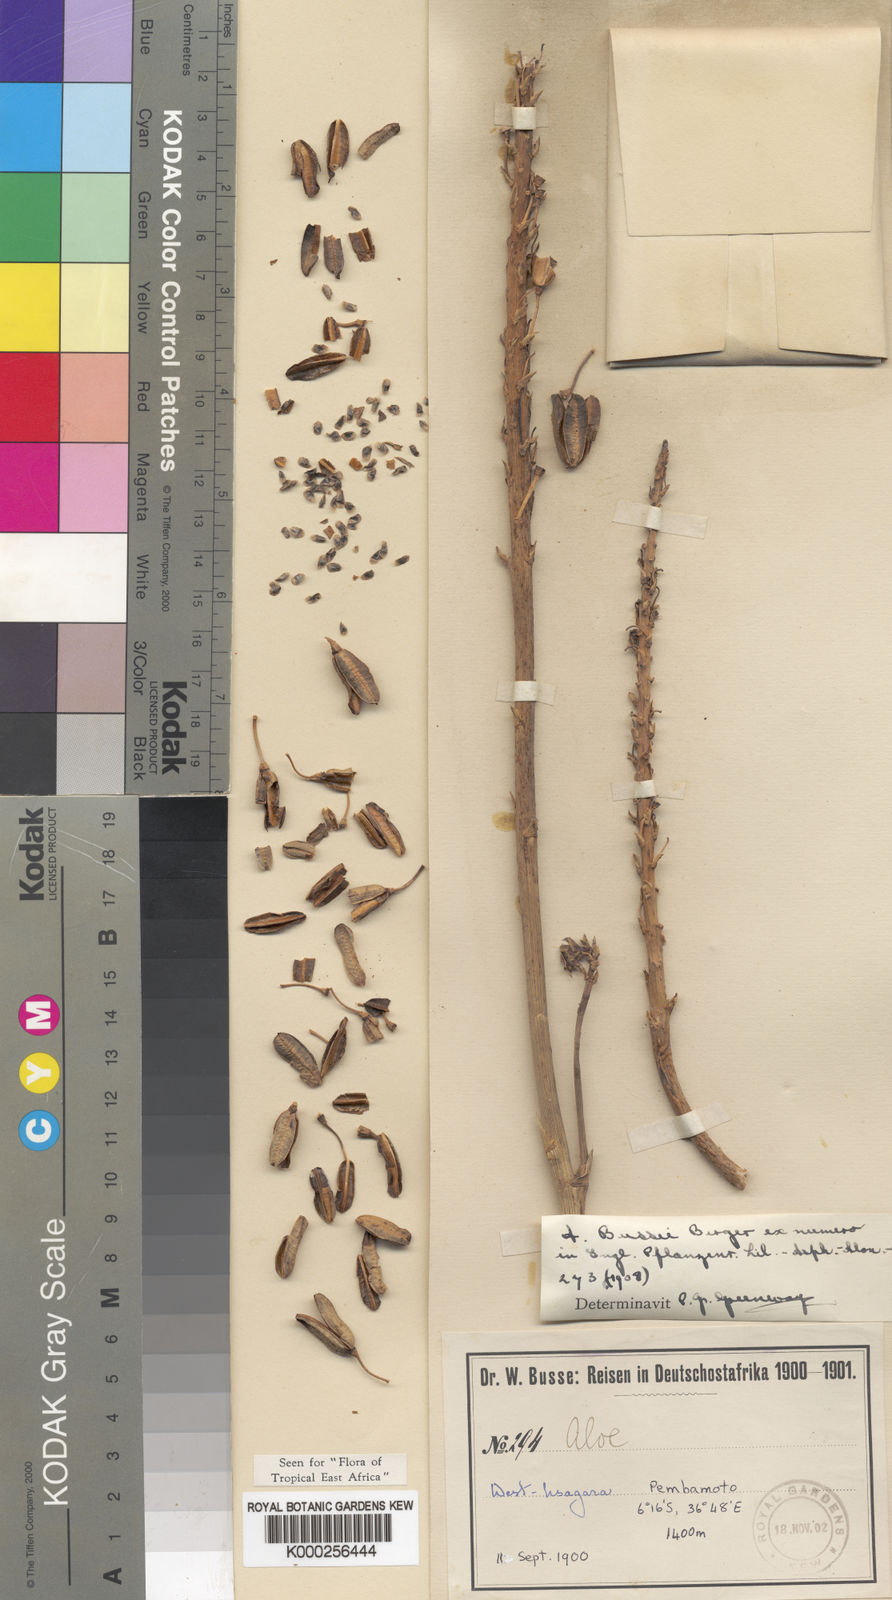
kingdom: Plantae
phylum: Tracheophyta
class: Liliopsida
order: Asparagales
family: Asphodelaceae
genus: Aloe
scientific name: Aloe bussei
